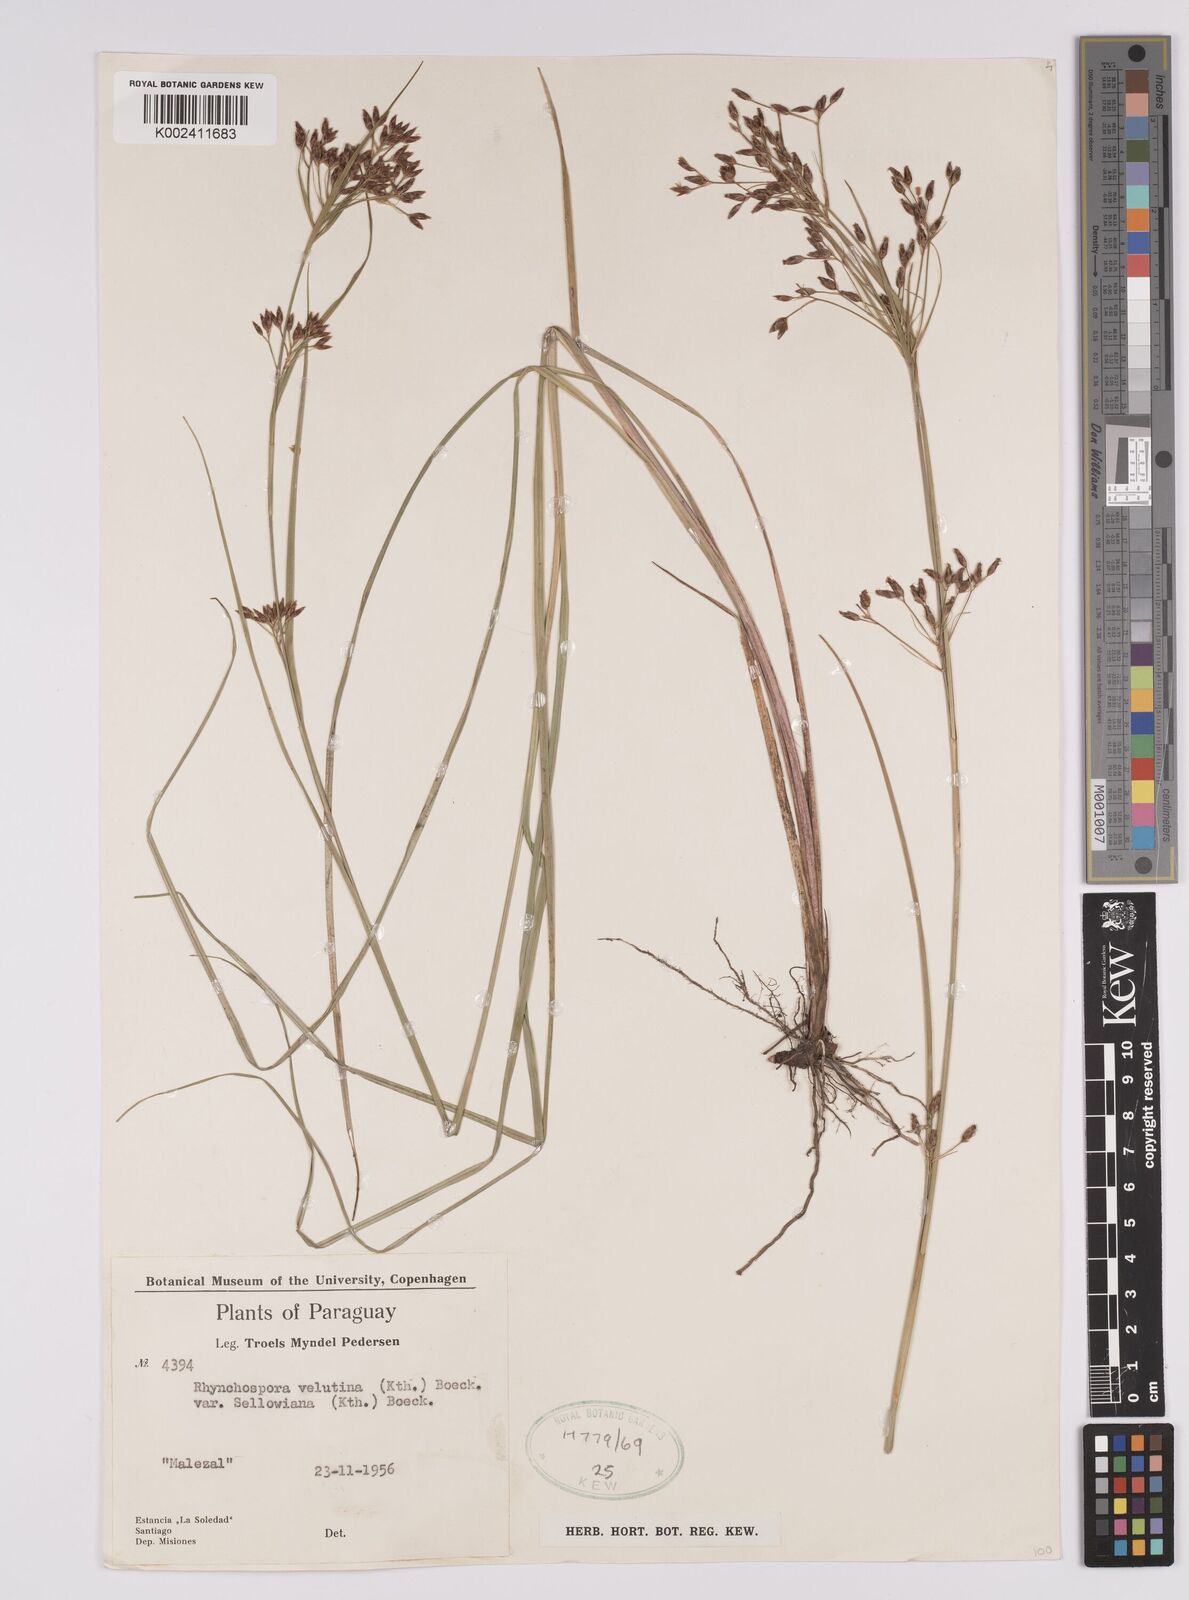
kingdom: Plantae
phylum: Tracheophyta
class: Liliopsida
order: Poales
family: Cyperaceae
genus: Rhynchospora
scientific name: Rhynchospora velutina
